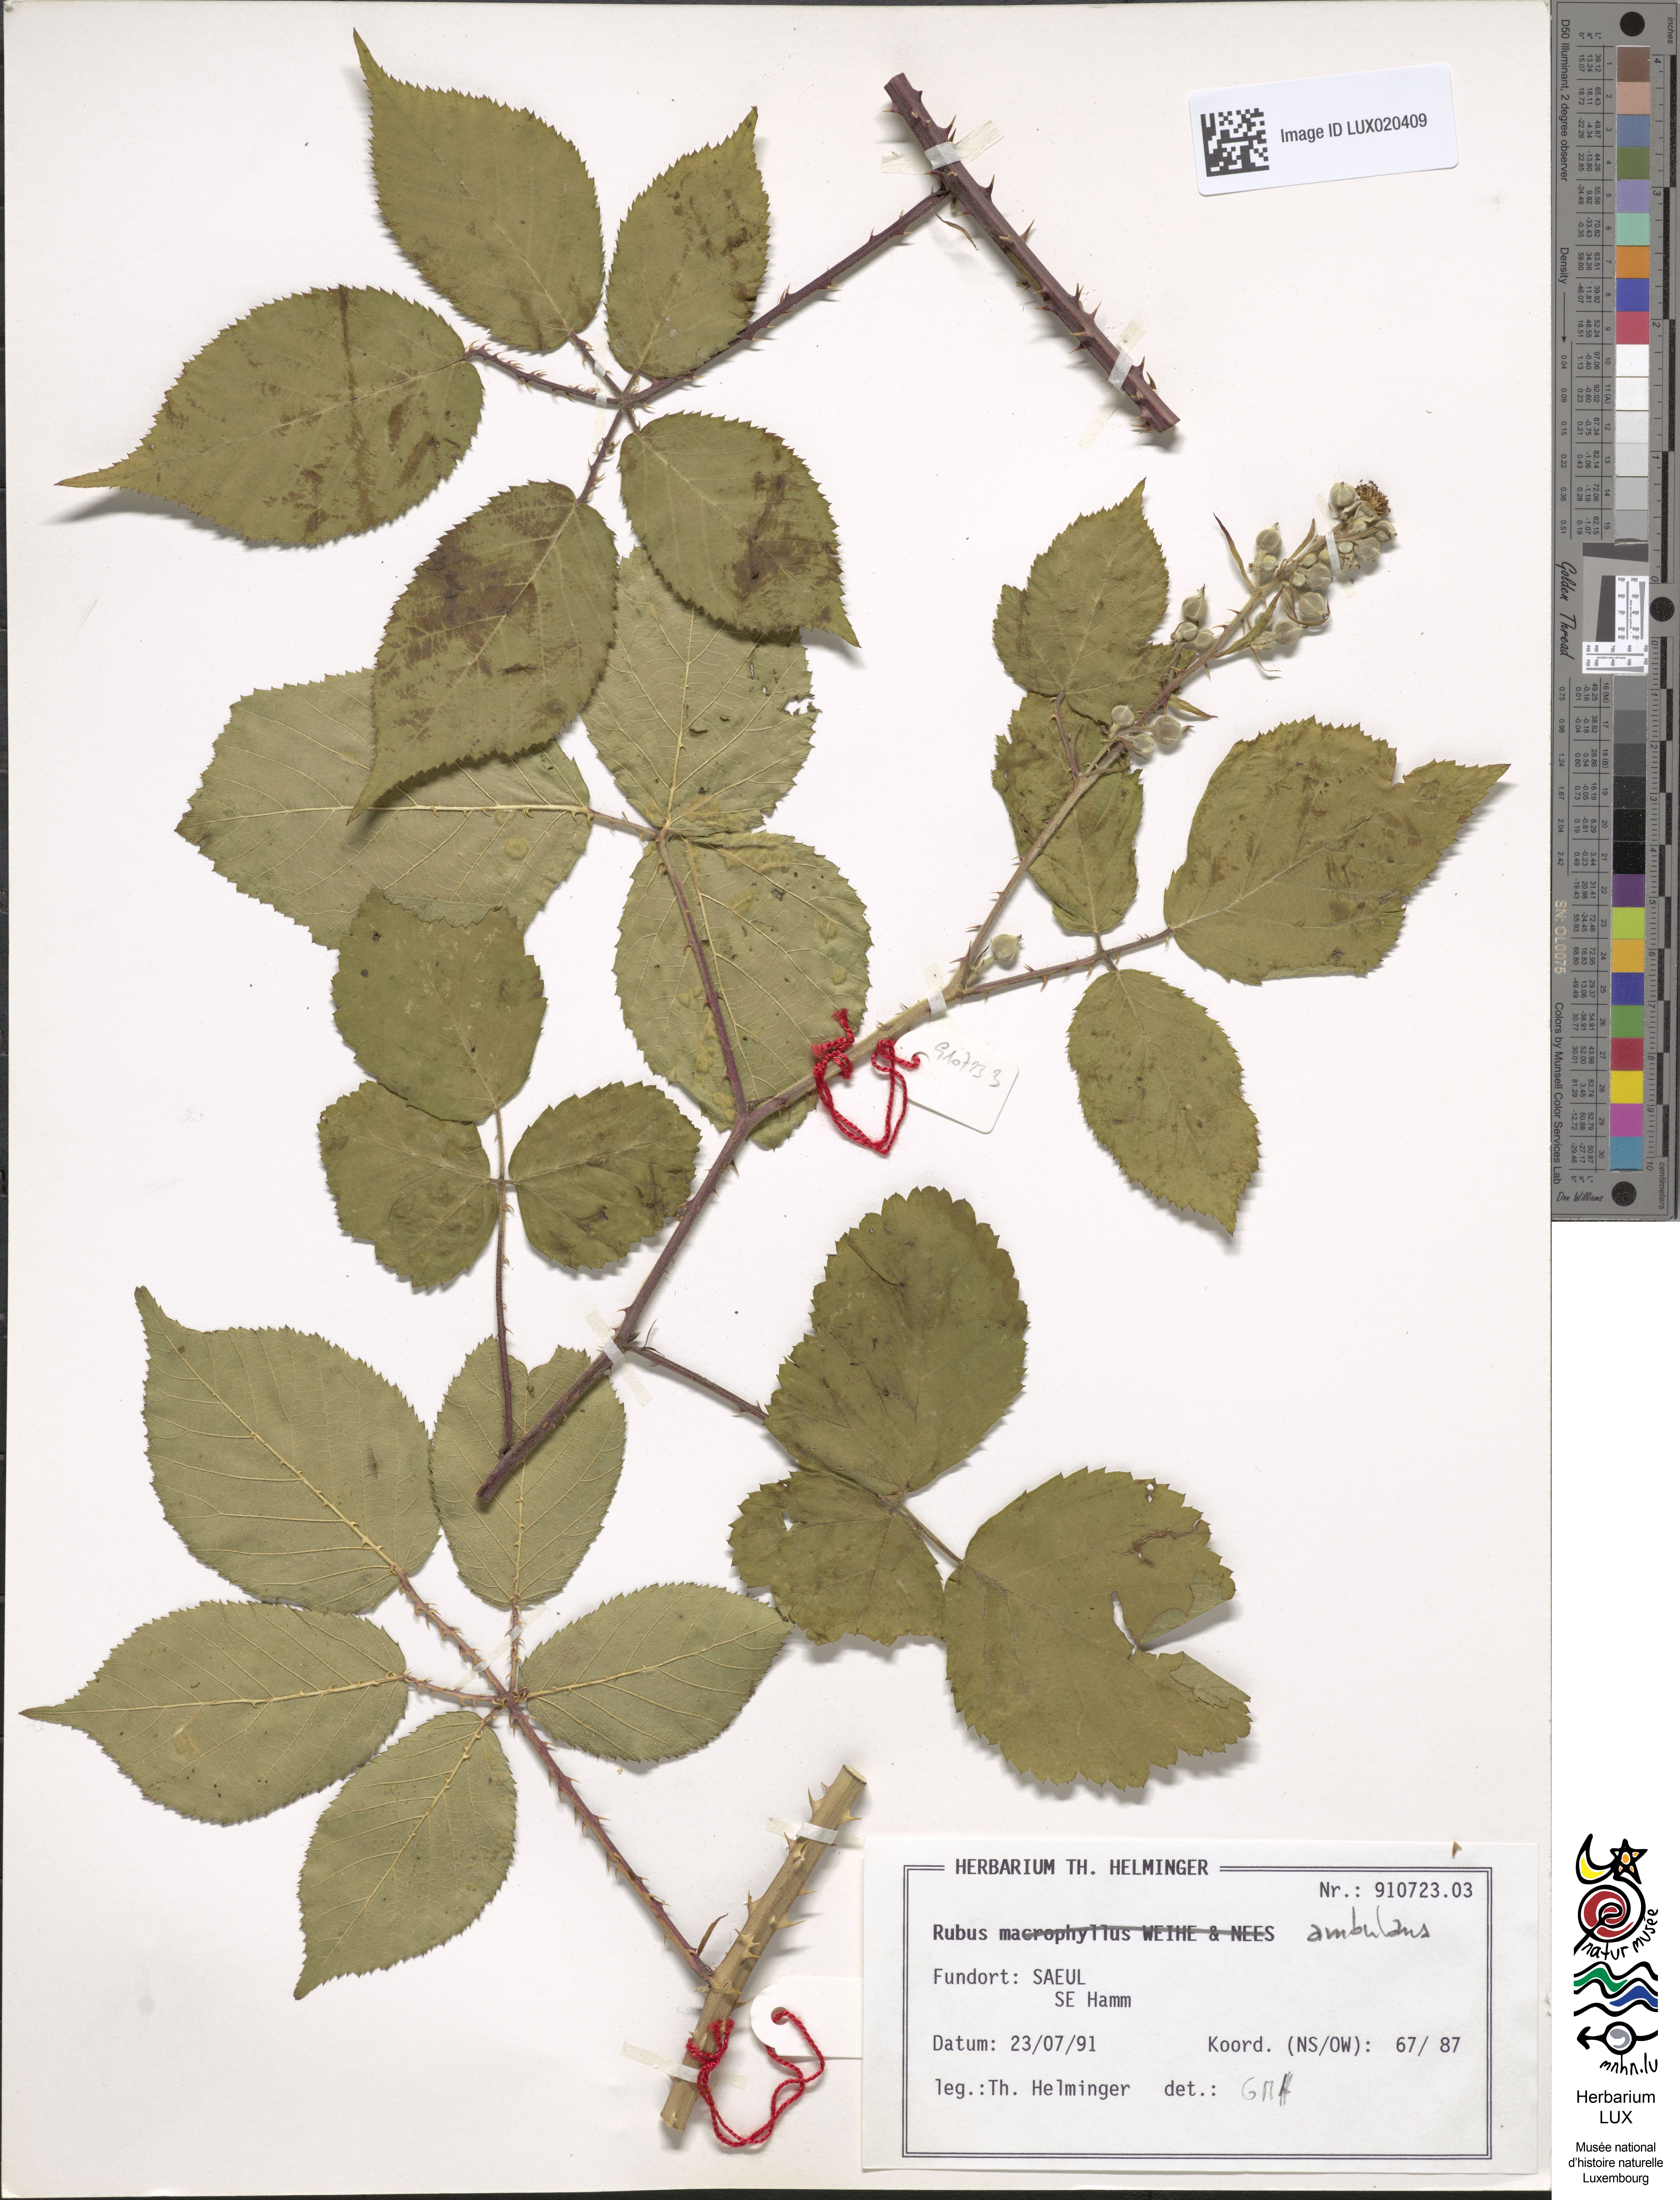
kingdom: Plantae
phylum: Tracheophyta
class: Magnoliopsida
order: Rosales
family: Rosaceae
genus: Rubus
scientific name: Rubus gremlii
